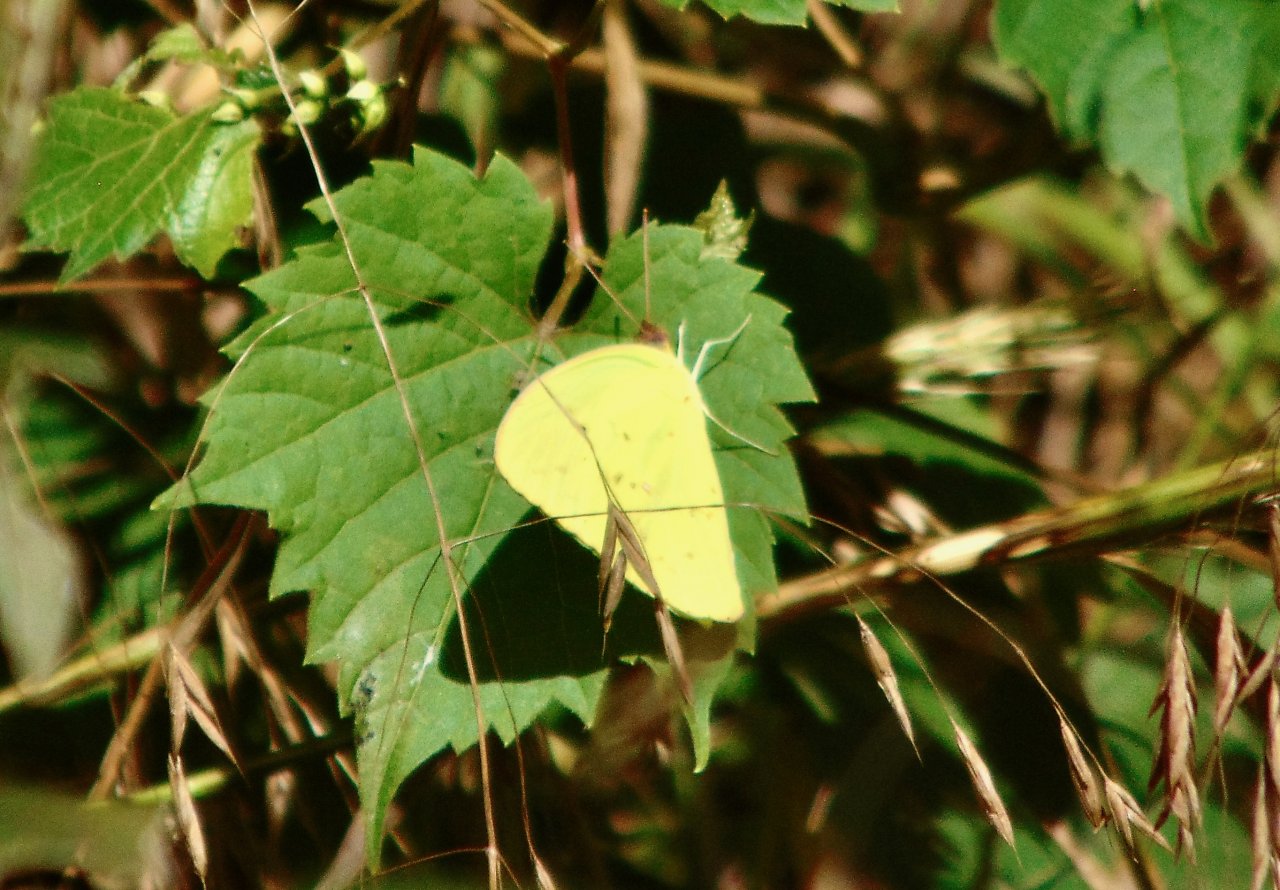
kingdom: Animalia
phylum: Arthropoda
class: Insecta
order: Lepidoptera
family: Pieridae
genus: Phoebis
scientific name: Phoebis sennae
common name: Cloudless Sulphur
